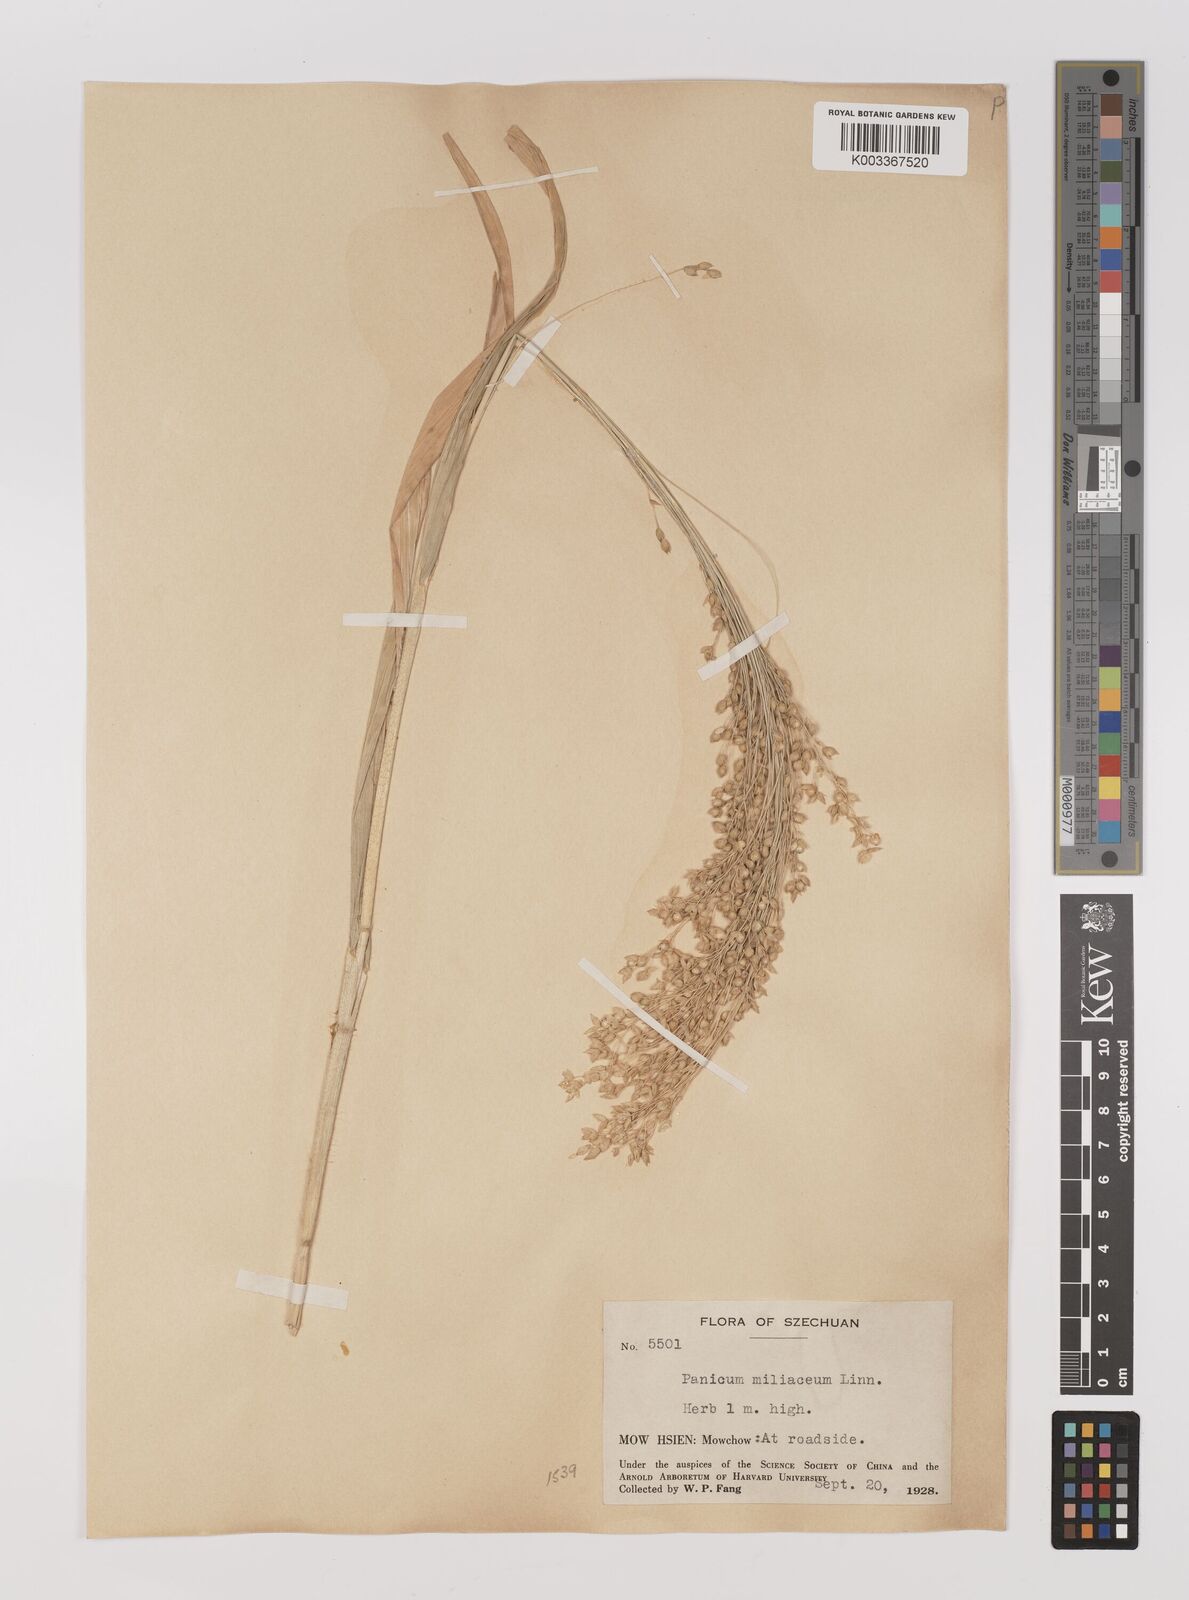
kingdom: Plantae
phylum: Tracheophyta
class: Liliopsida
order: Poales
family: Poaceae
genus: Panicum
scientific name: Panicum miliaceum
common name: Common millet
